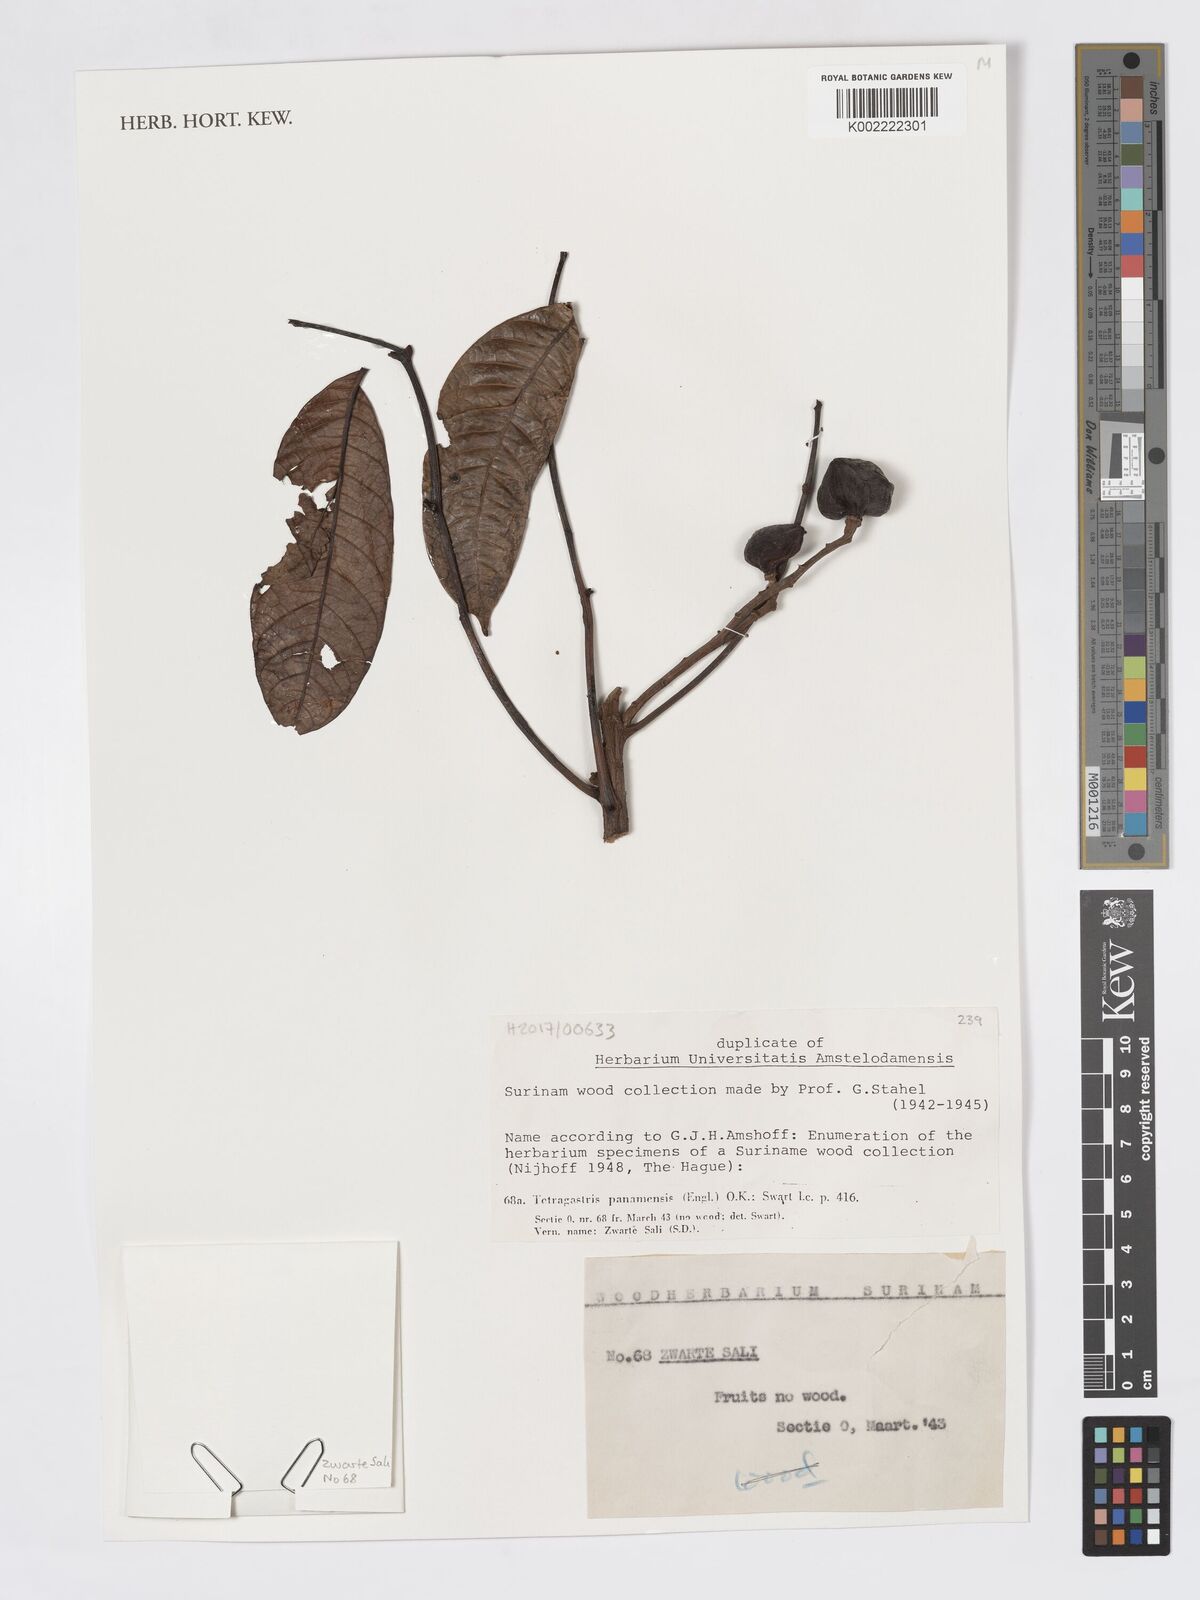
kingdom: Plantae
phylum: Tracheophyta
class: Magnoliopsida
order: Sapindales
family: Burseraceae
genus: Tetragastris
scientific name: Tetragastris panamensis
